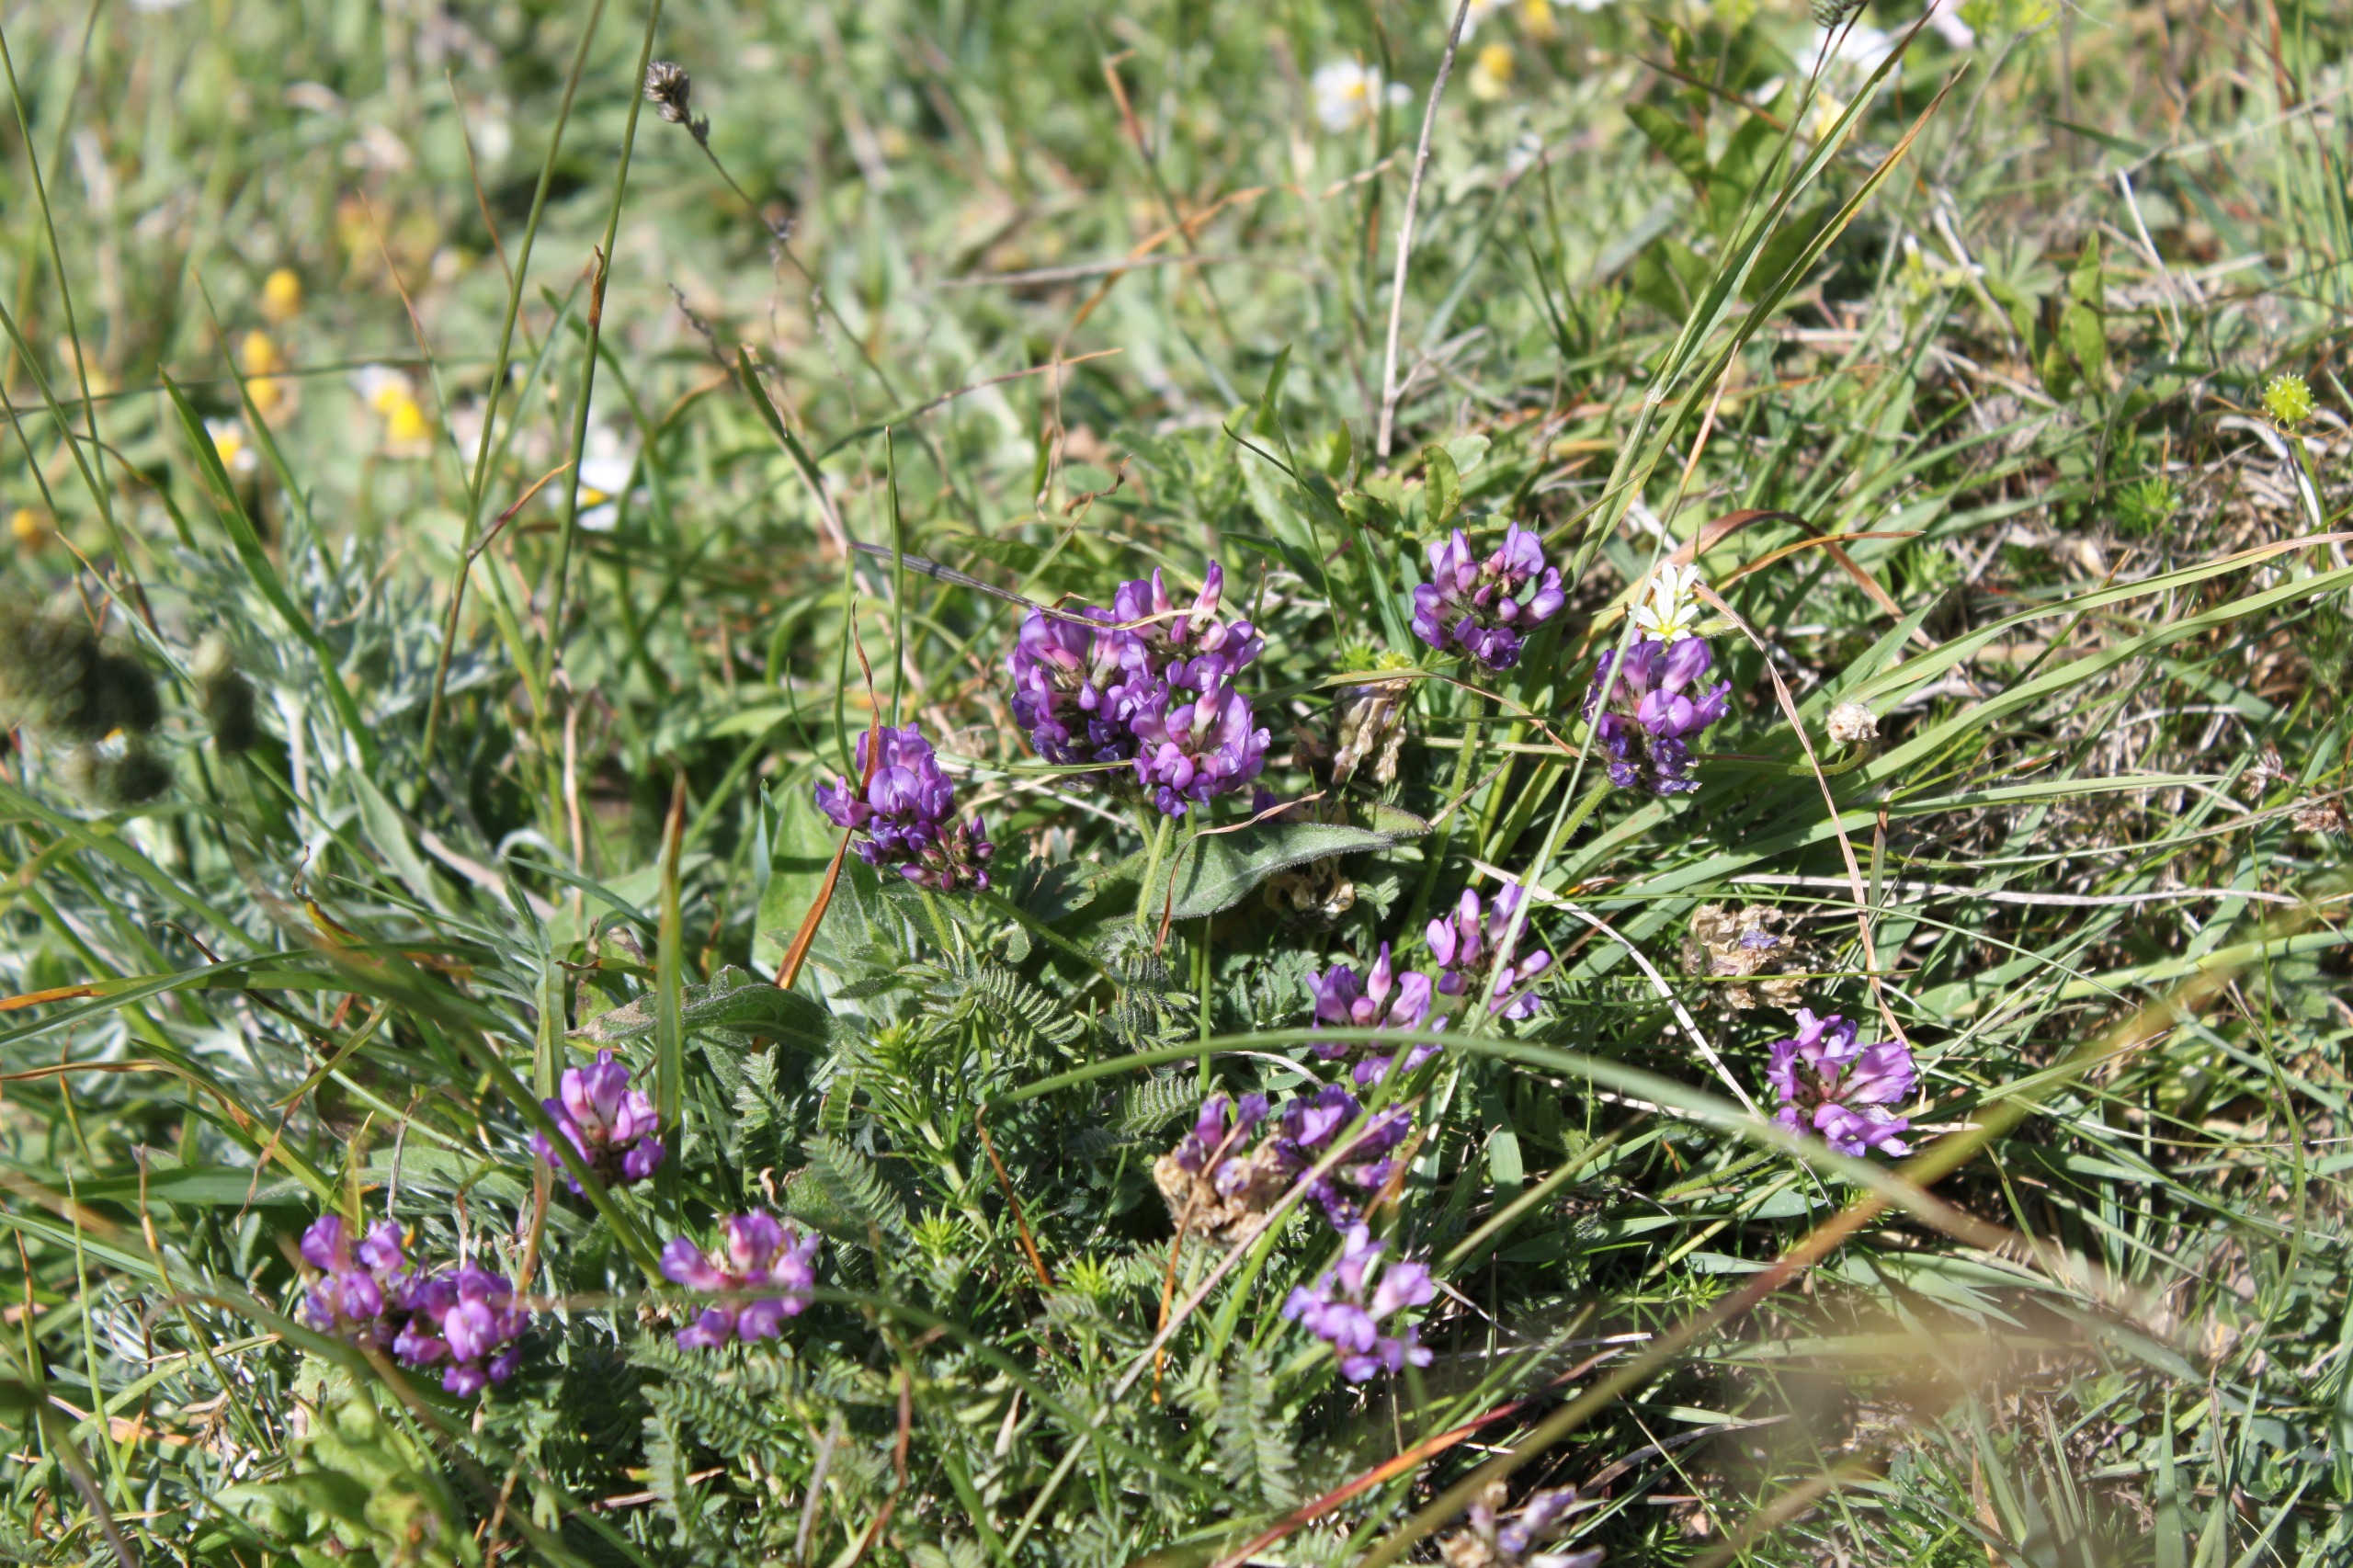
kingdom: Plantae
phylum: Tracheophyta
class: Magnoliopsida
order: Fabales
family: Fabaceae
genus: Astragalus
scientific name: Astragalus danicus
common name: Dansk astragel
